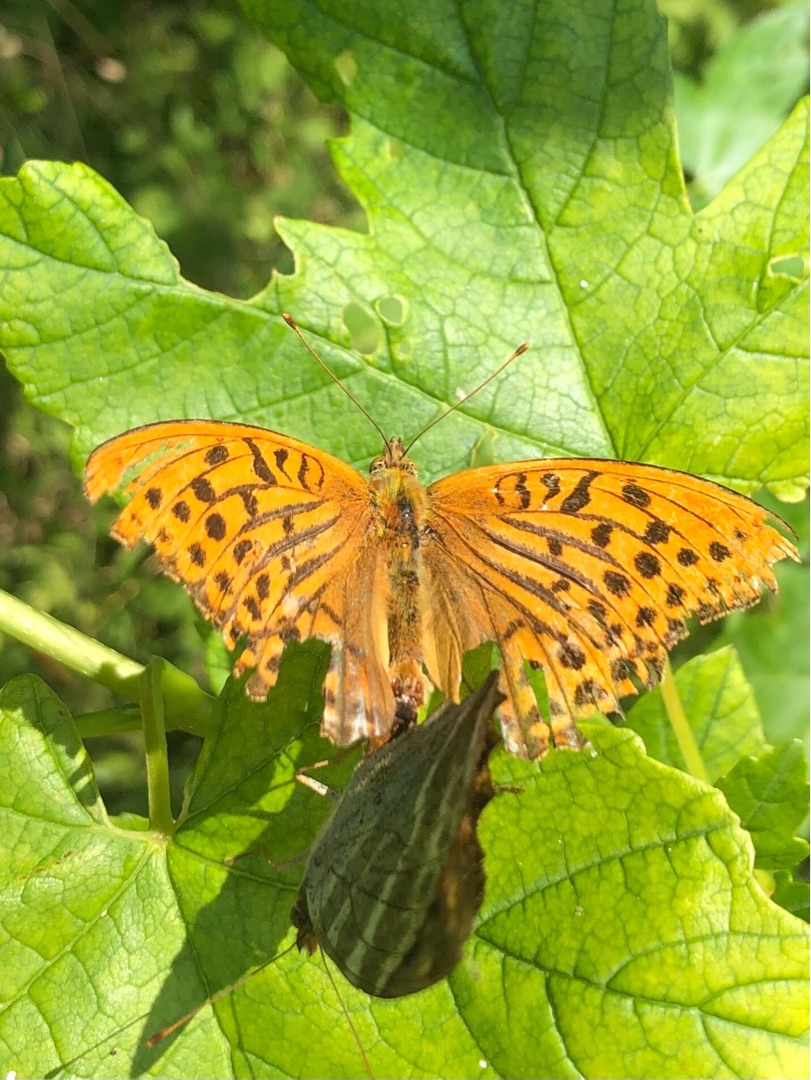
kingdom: Animalia
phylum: Arthropoda
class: Insecta
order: Lepidoptera
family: Nymphalidae
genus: Argynnis
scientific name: Argynnis paphia
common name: Kejserkåbe
